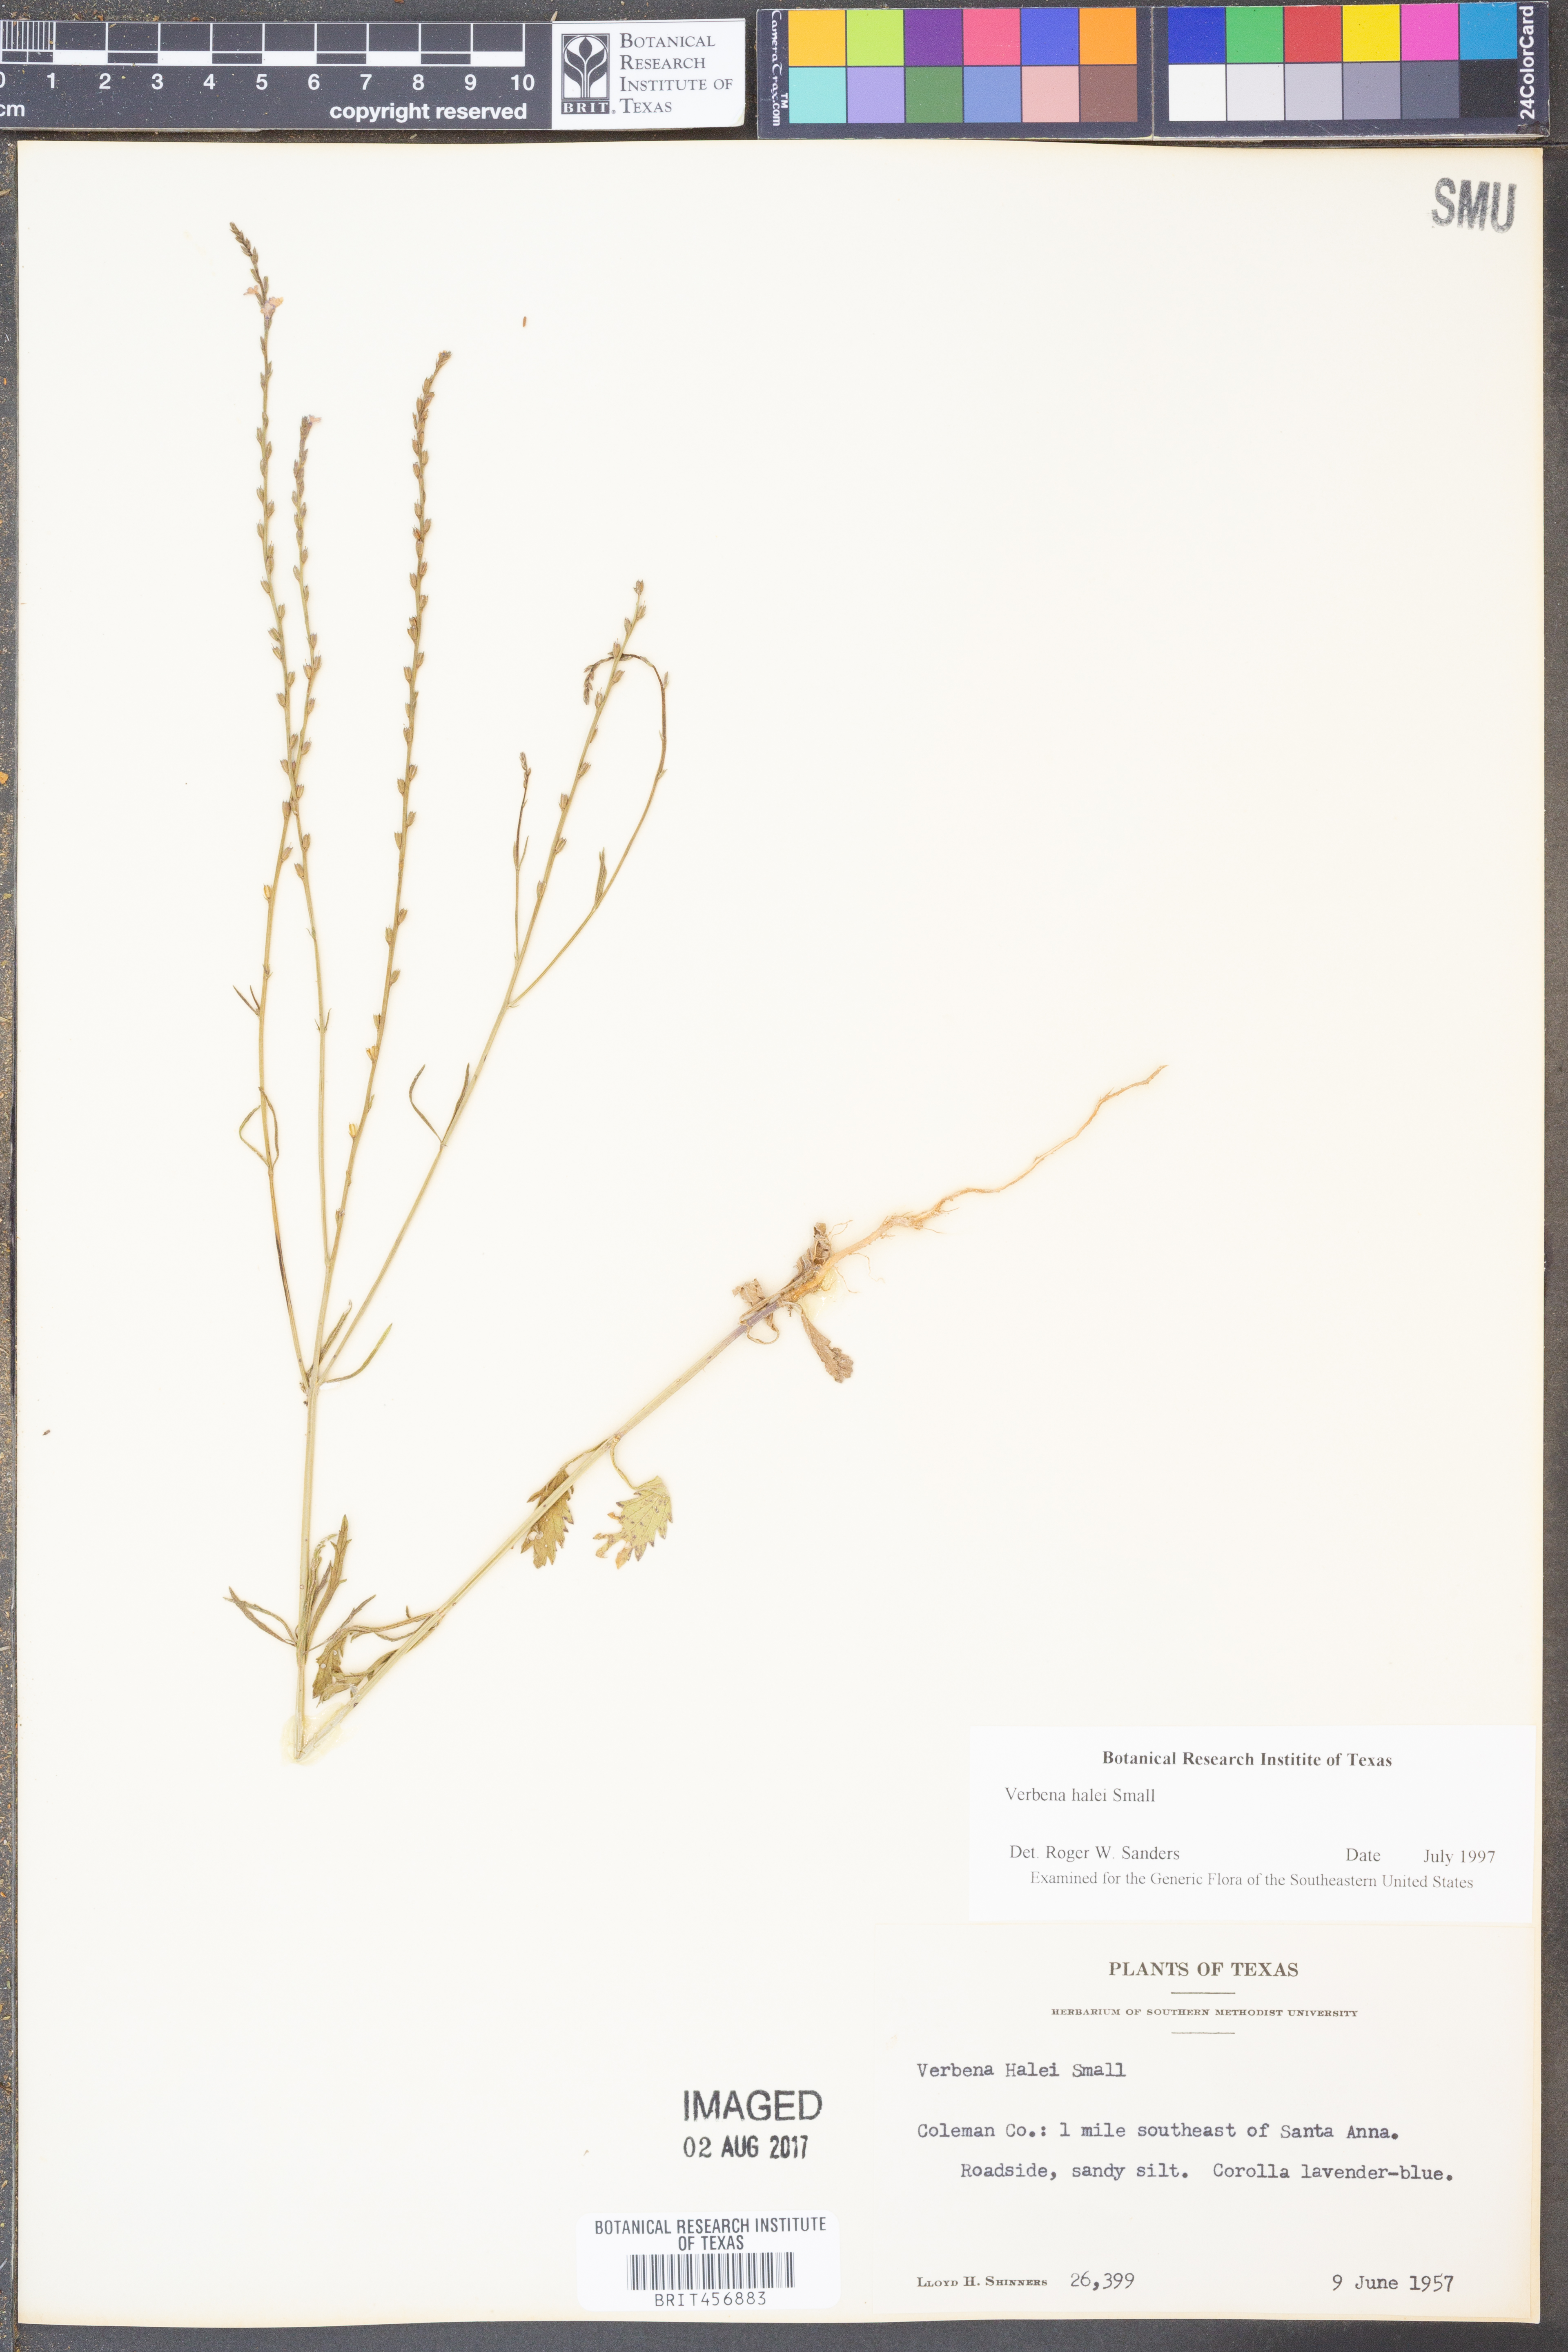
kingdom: Plantae
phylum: Tracheophyta
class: Magnoliopsida
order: Lamiales
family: Verbenaceae
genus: Verbena
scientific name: Verbena halei
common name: Texas vervain
